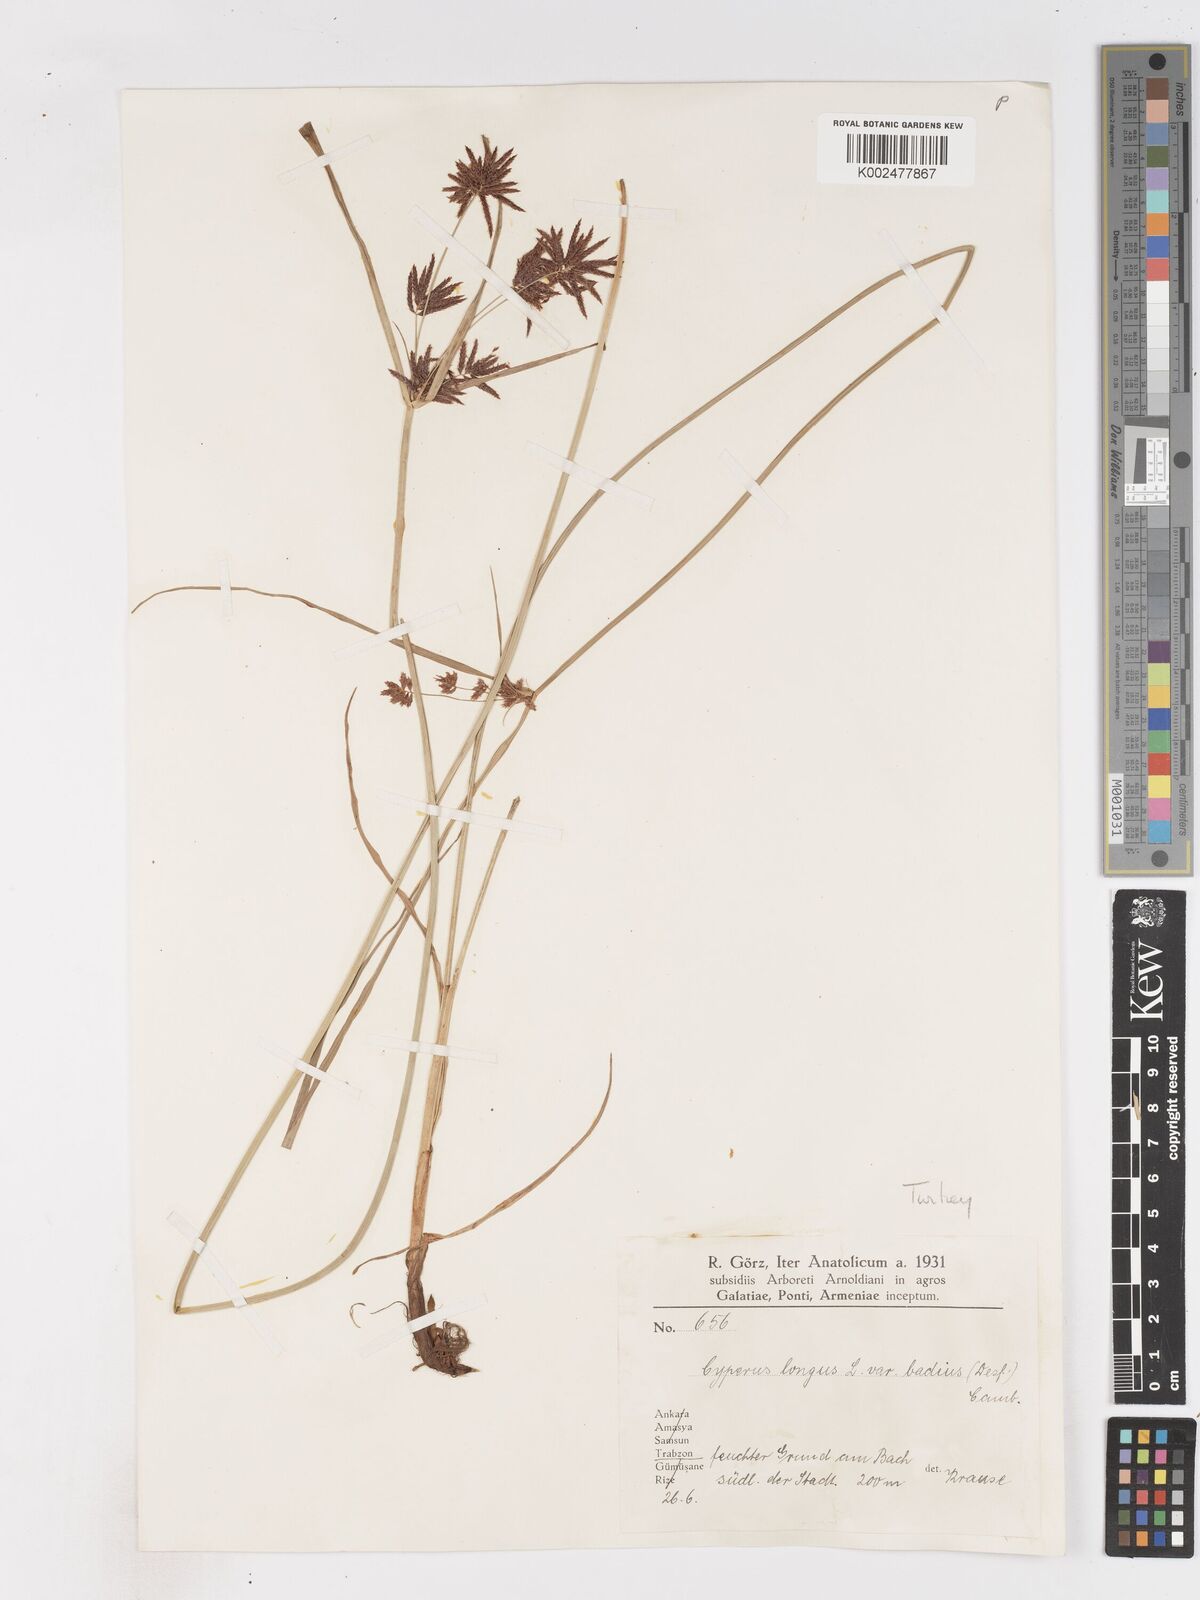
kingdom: Plantae
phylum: Tracheophyta
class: Liliopsida
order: Poales
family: Cyperaceae
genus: Cyperus
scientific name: Cyperus longus
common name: Galingale
